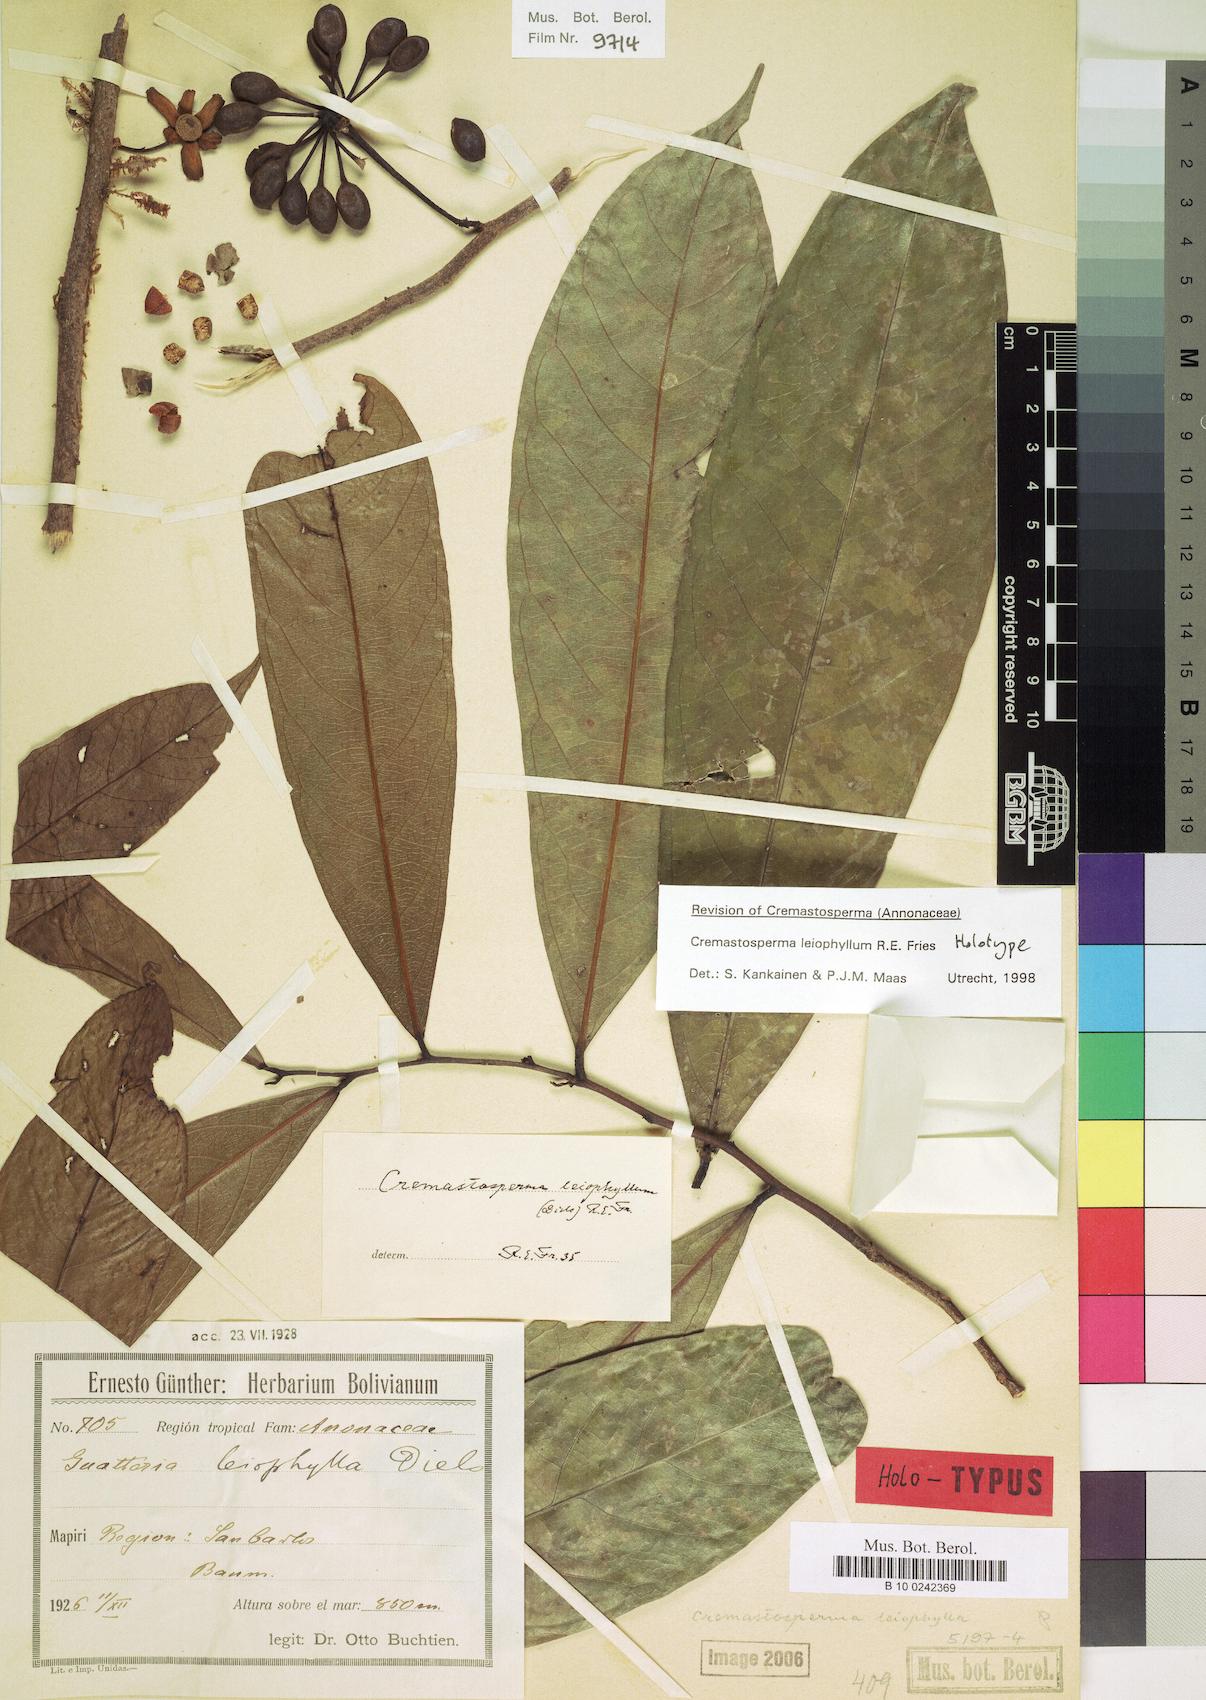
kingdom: Plantae
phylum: Tracheophyta
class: Magnoliopsida
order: Magnoliales
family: Annonaceae
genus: Cremastosperma
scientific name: Cremastosperma leiophyllum
